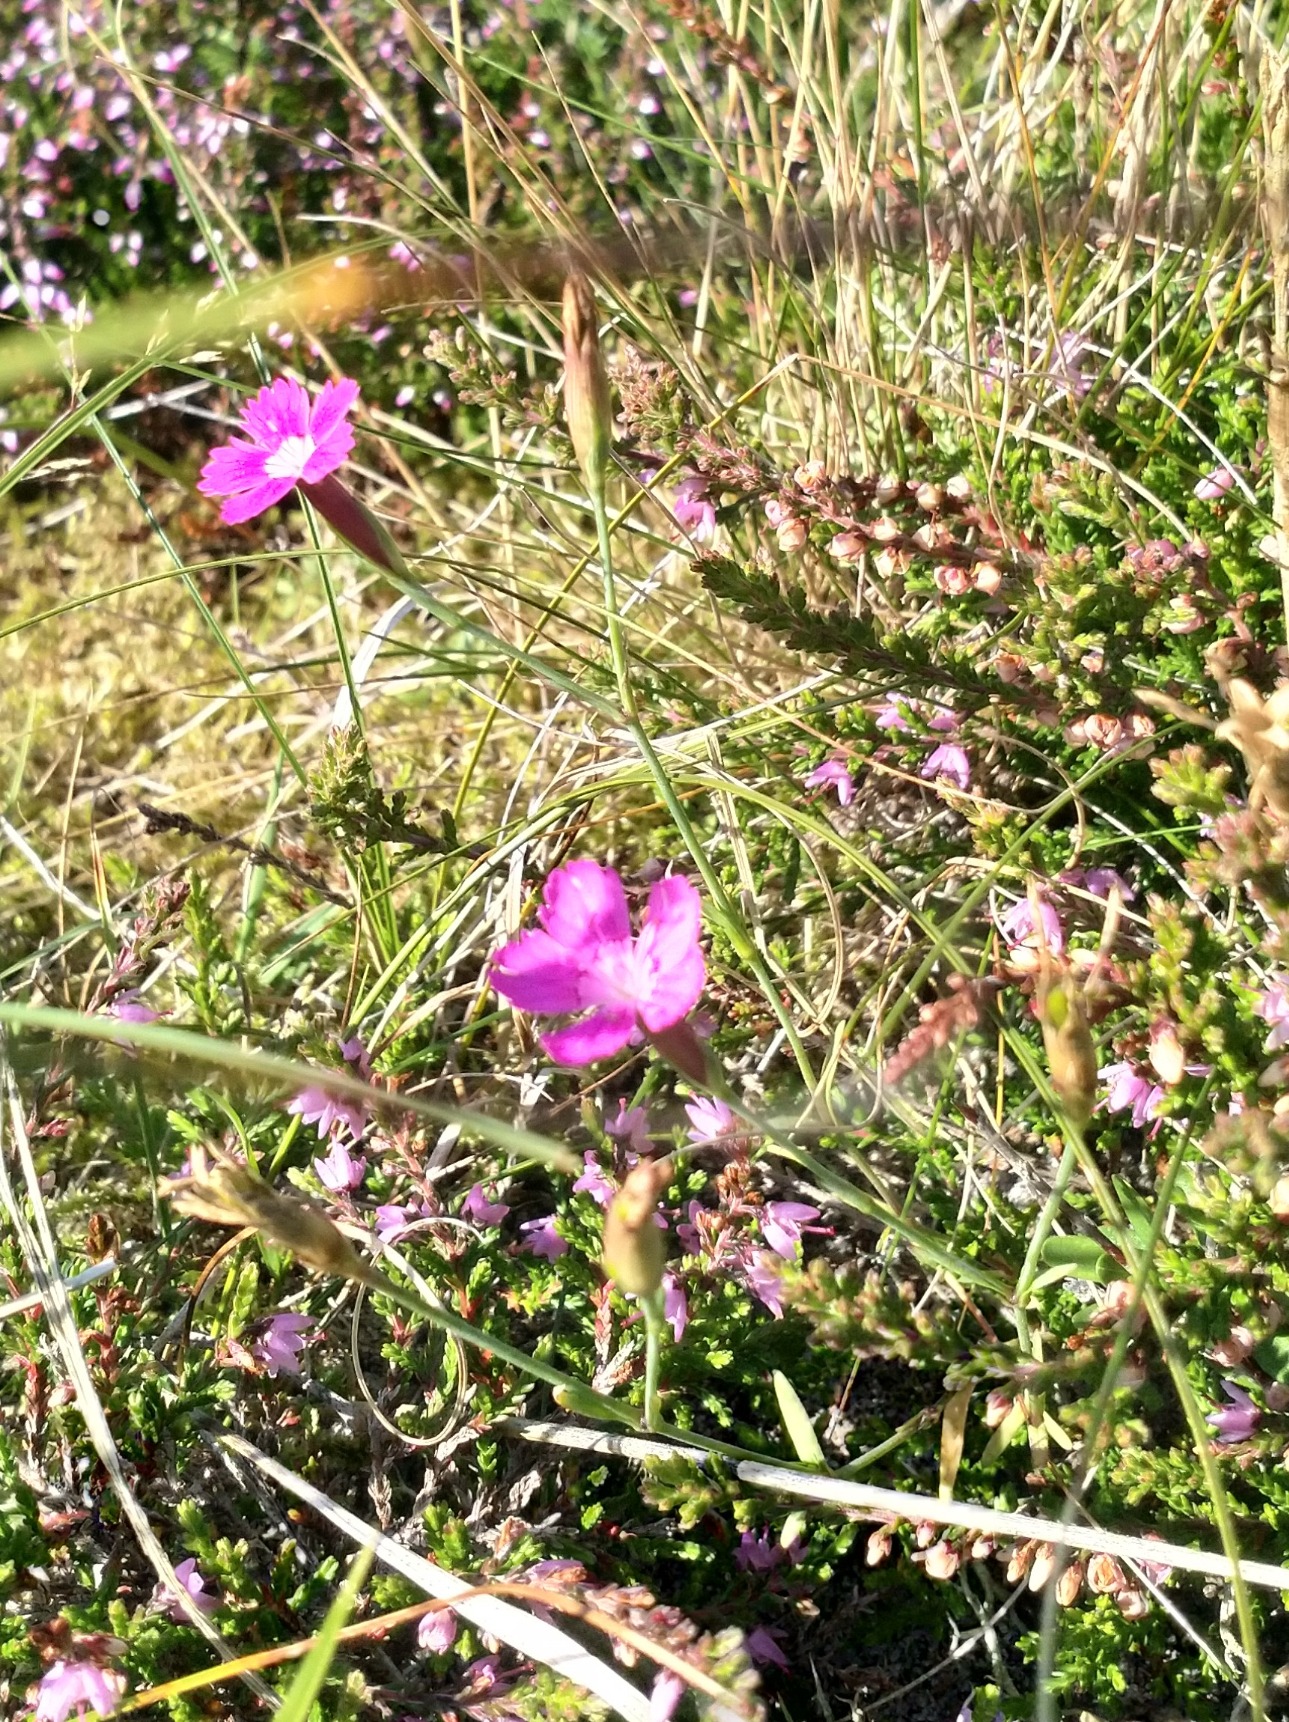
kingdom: Plantae
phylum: Tracheophyta
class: Magnoliopsida
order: Caryophyllales
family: Caryophyllaceae
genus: Dianthus
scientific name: Dianthus deltoides
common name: Bakke-nellike
